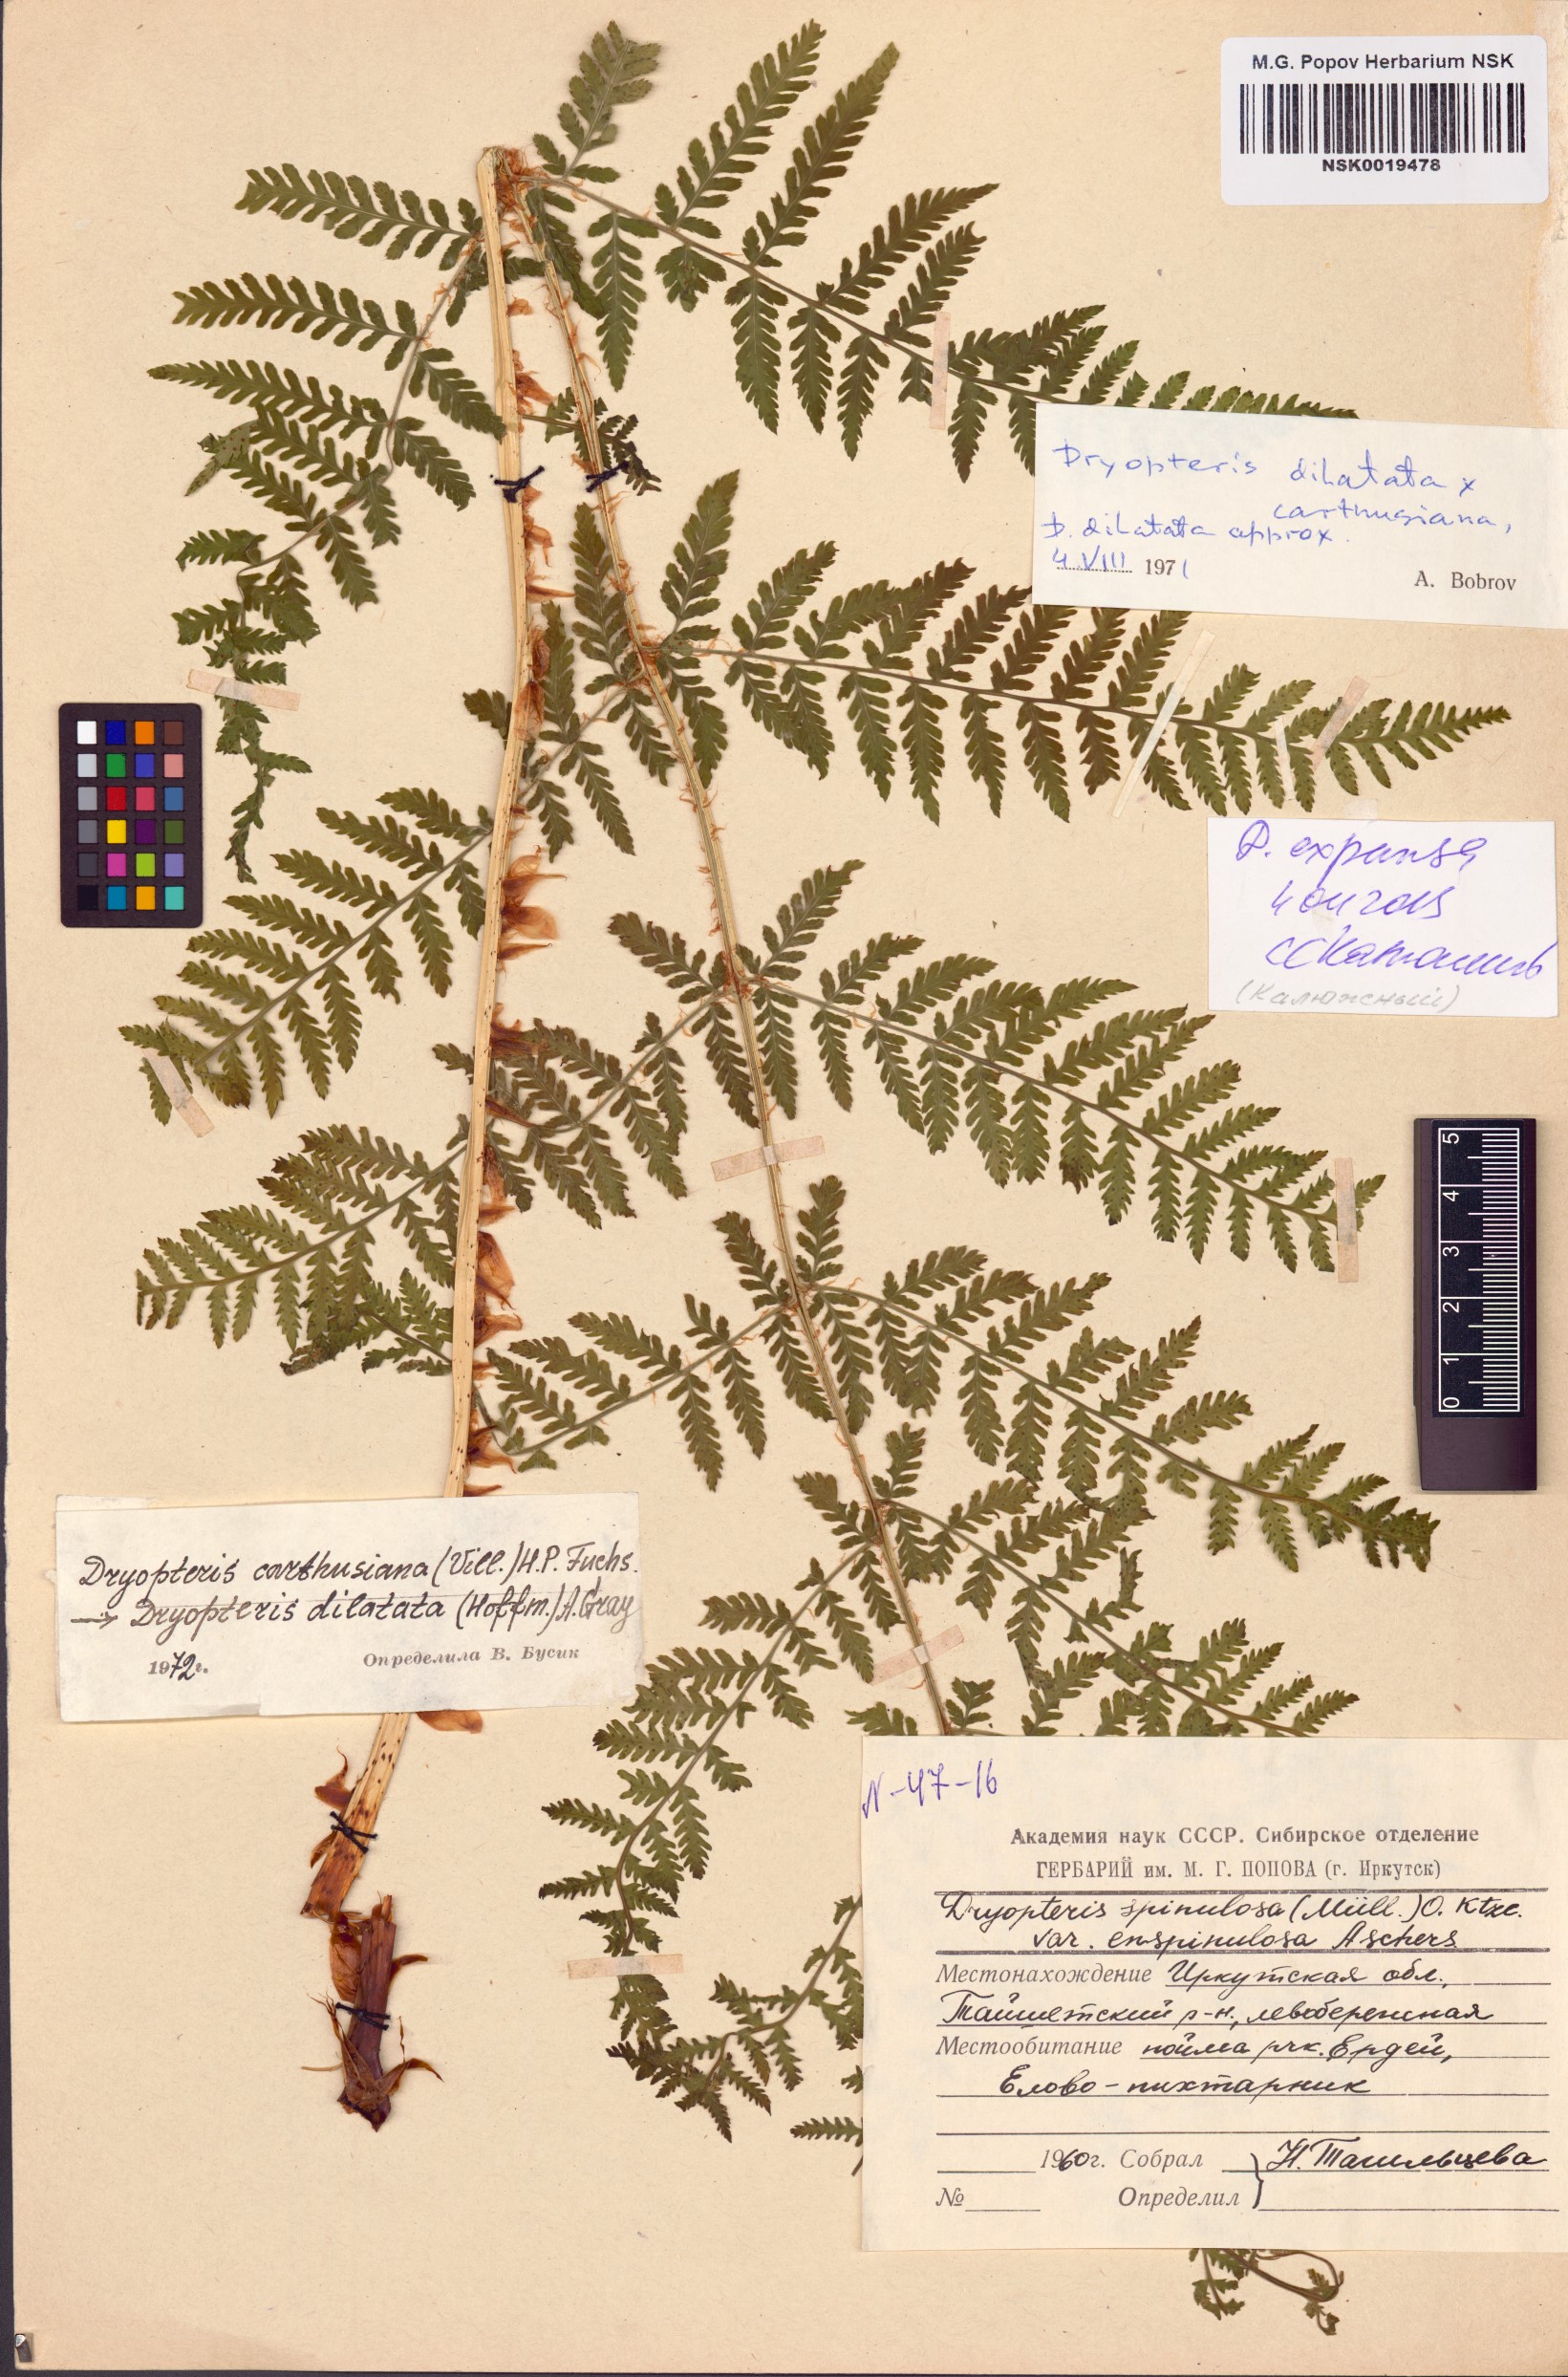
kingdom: Plantae
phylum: Tracheophyta
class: Polypodiopsida
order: Polypodiales
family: Dryopteridaceae
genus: Dryopteris
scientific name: Dryopteris expansa
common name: Northern buckler fern
